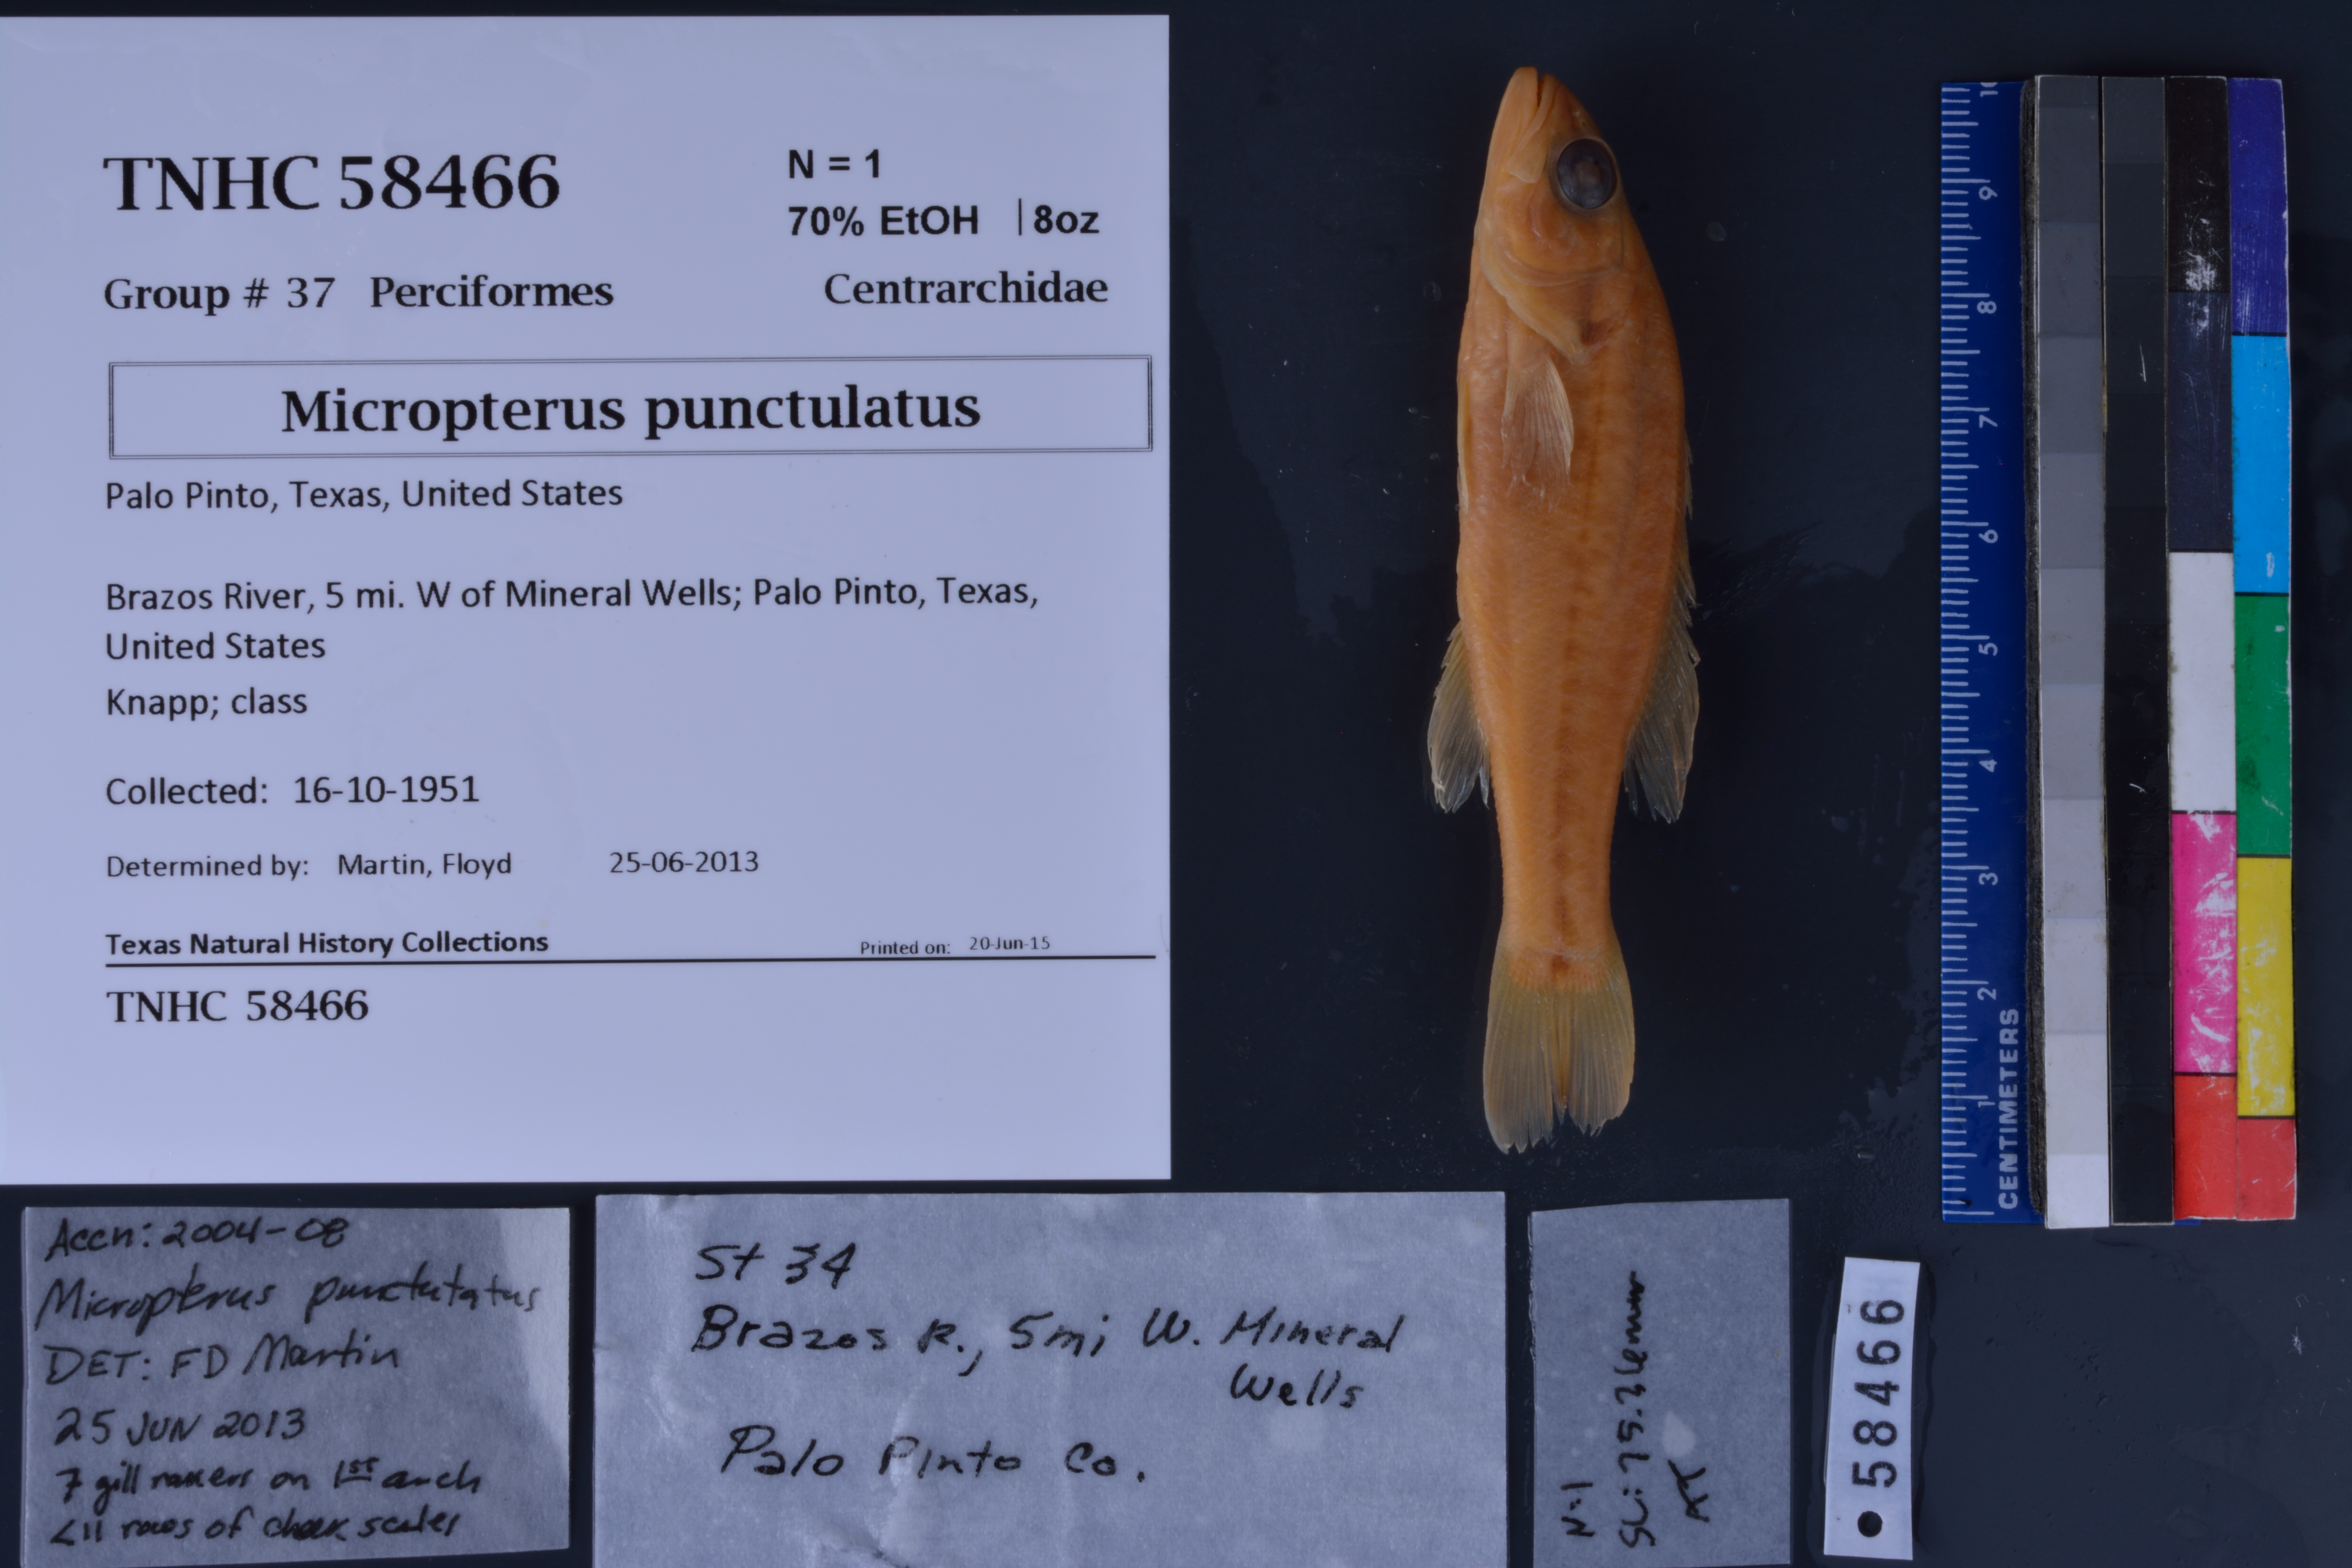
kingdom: Animalia
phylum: Chordata
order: Perciformes
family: Centrarchidae
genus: Micropterus
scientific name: Micropterus punctulatus
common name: Spotted bass
